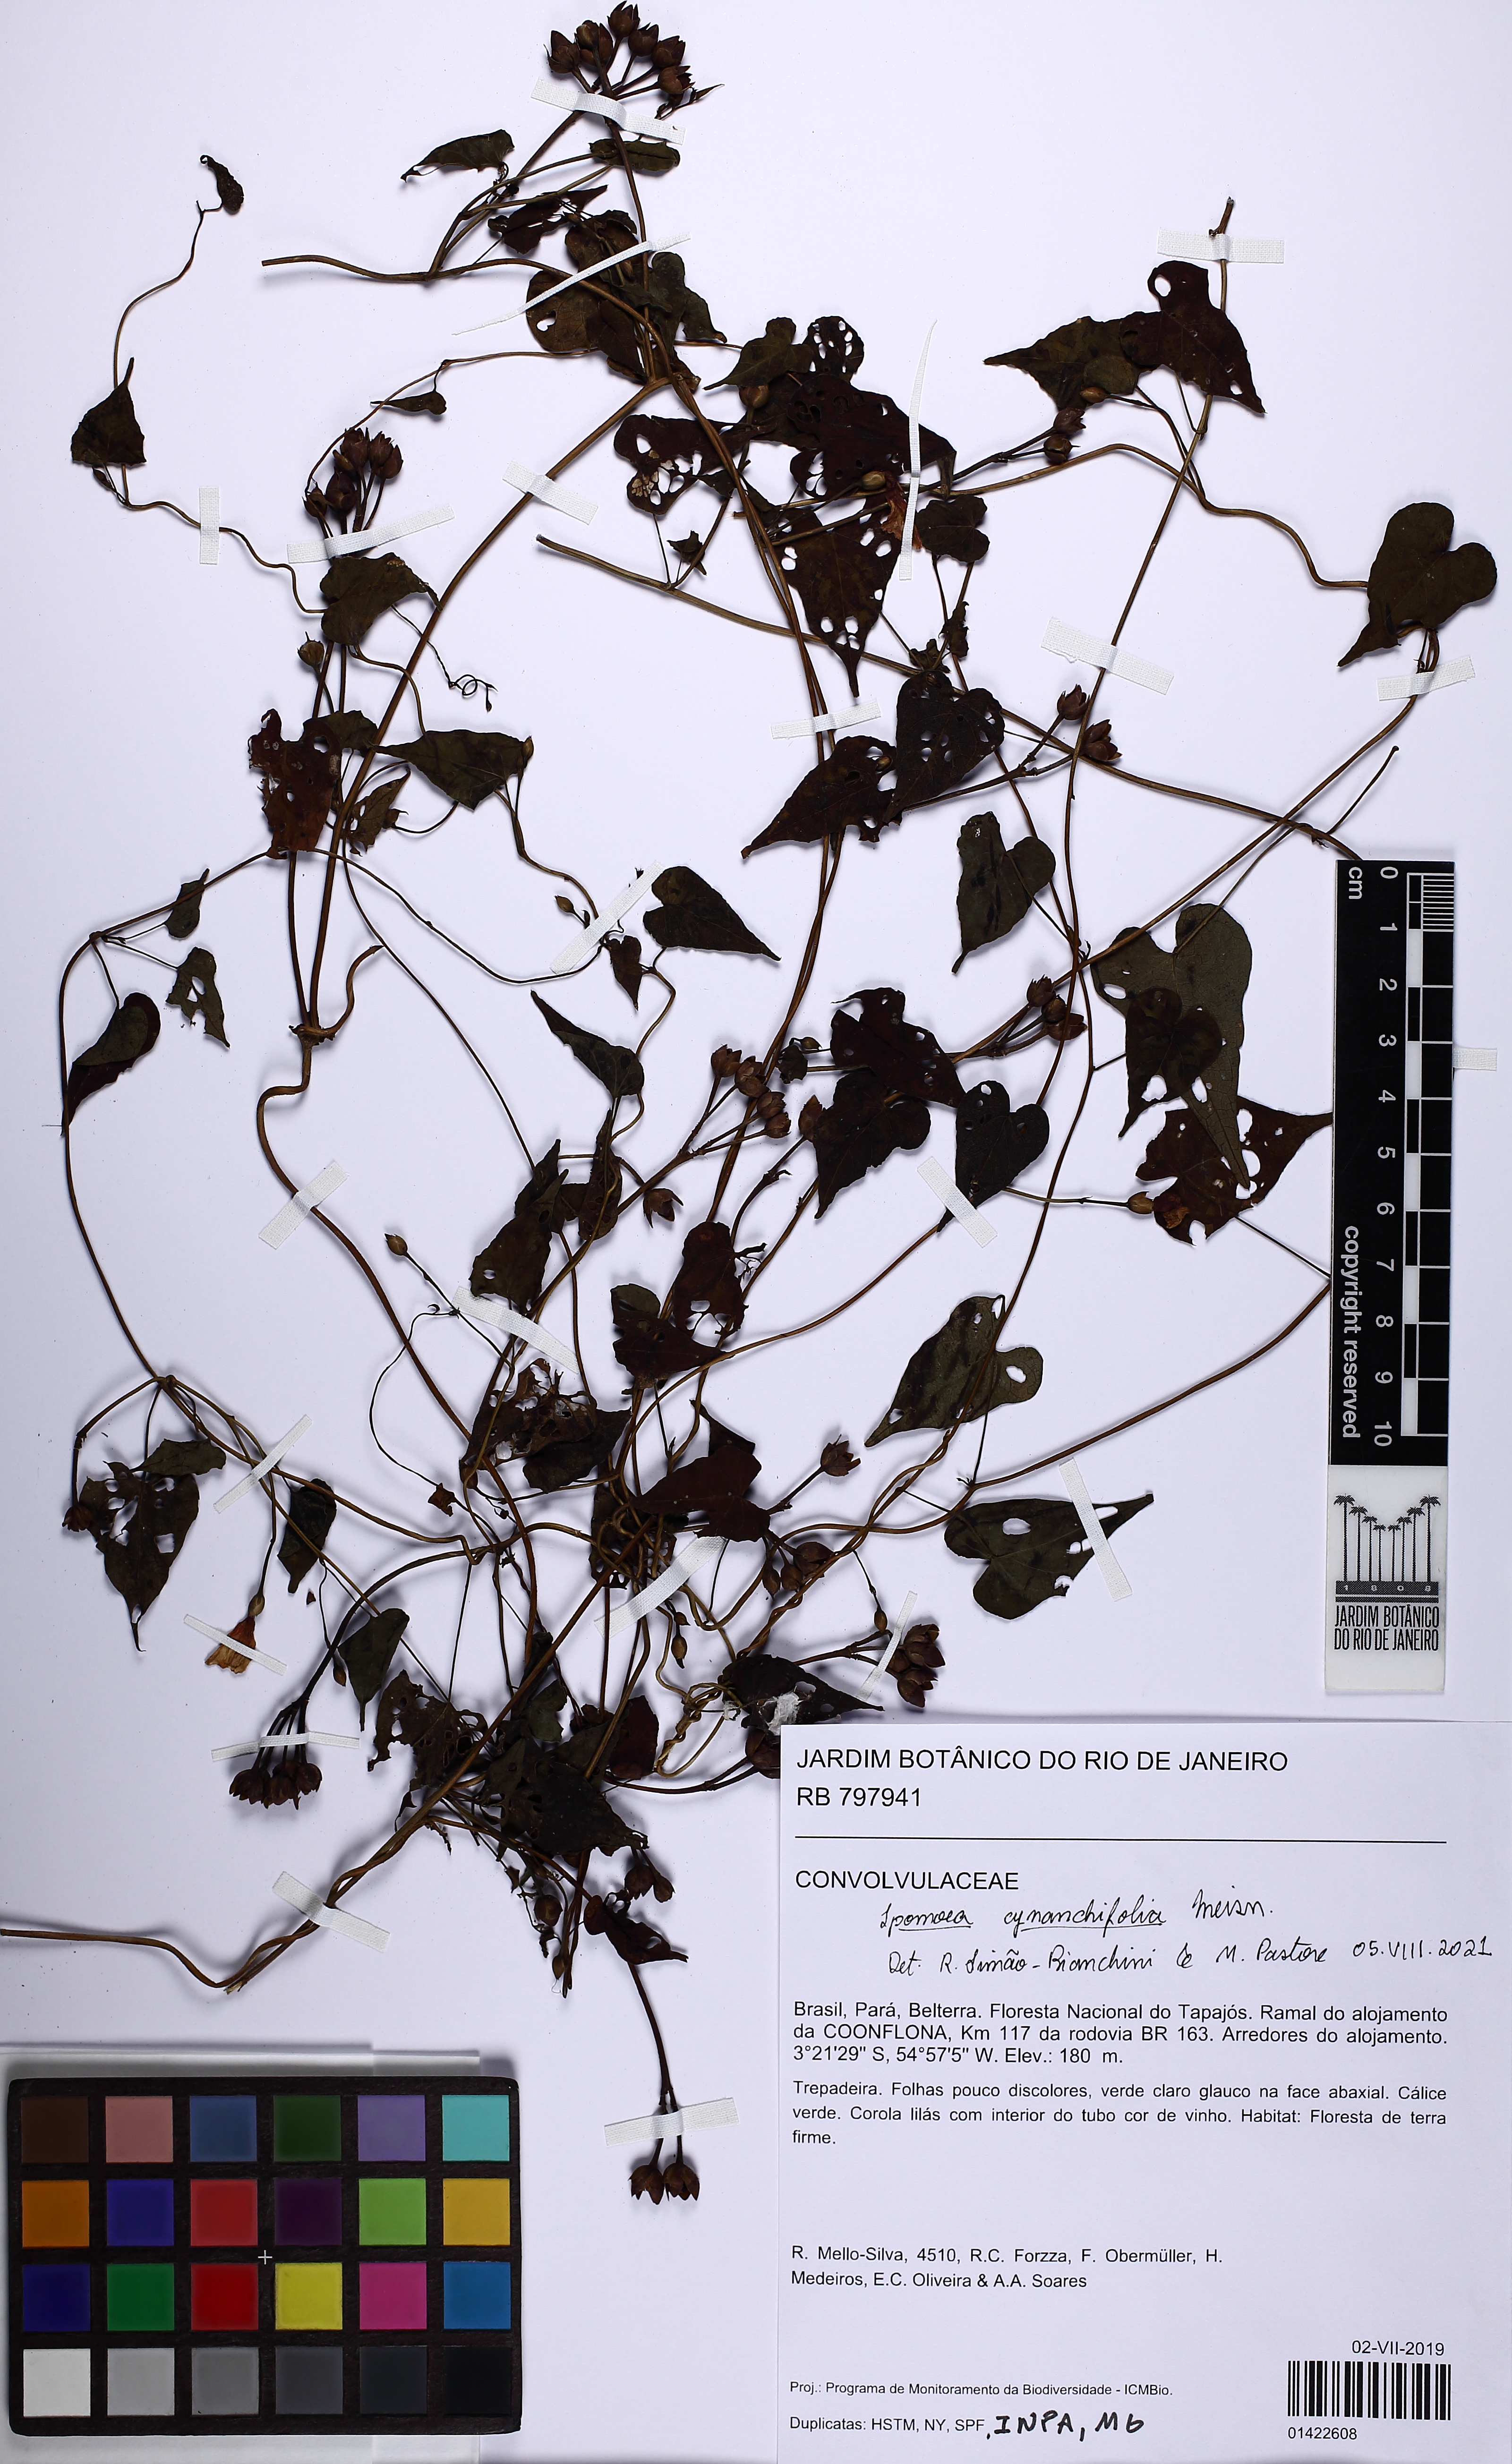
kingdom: Plantae
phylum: Tracheophyta
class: Magnoliopsida
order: Solanales
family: Convolvulaceae
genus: Ipomoea
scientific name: Ipomoea cynanchifolia
